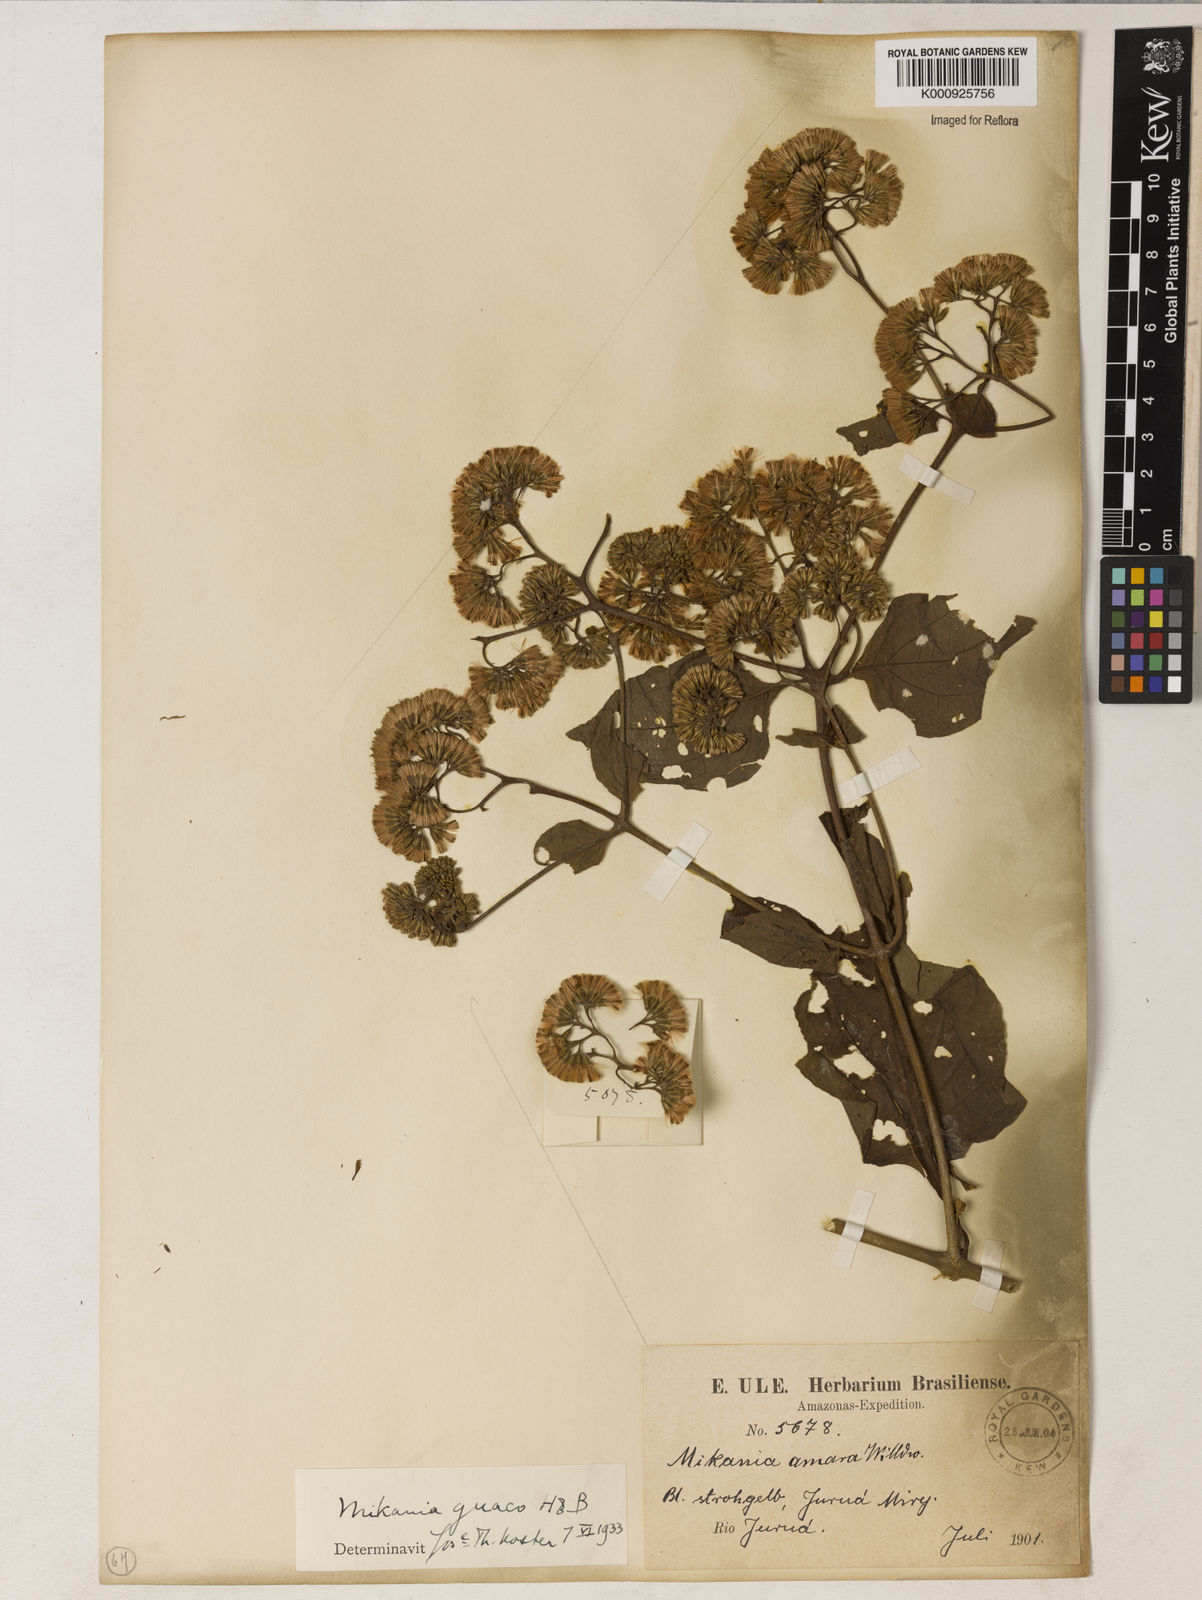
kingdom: Plantae
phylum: Tracheophyta
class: Magnoliopsida
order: Asterales
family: Asteraceae
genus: Mikania
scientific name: Mikania guaco
